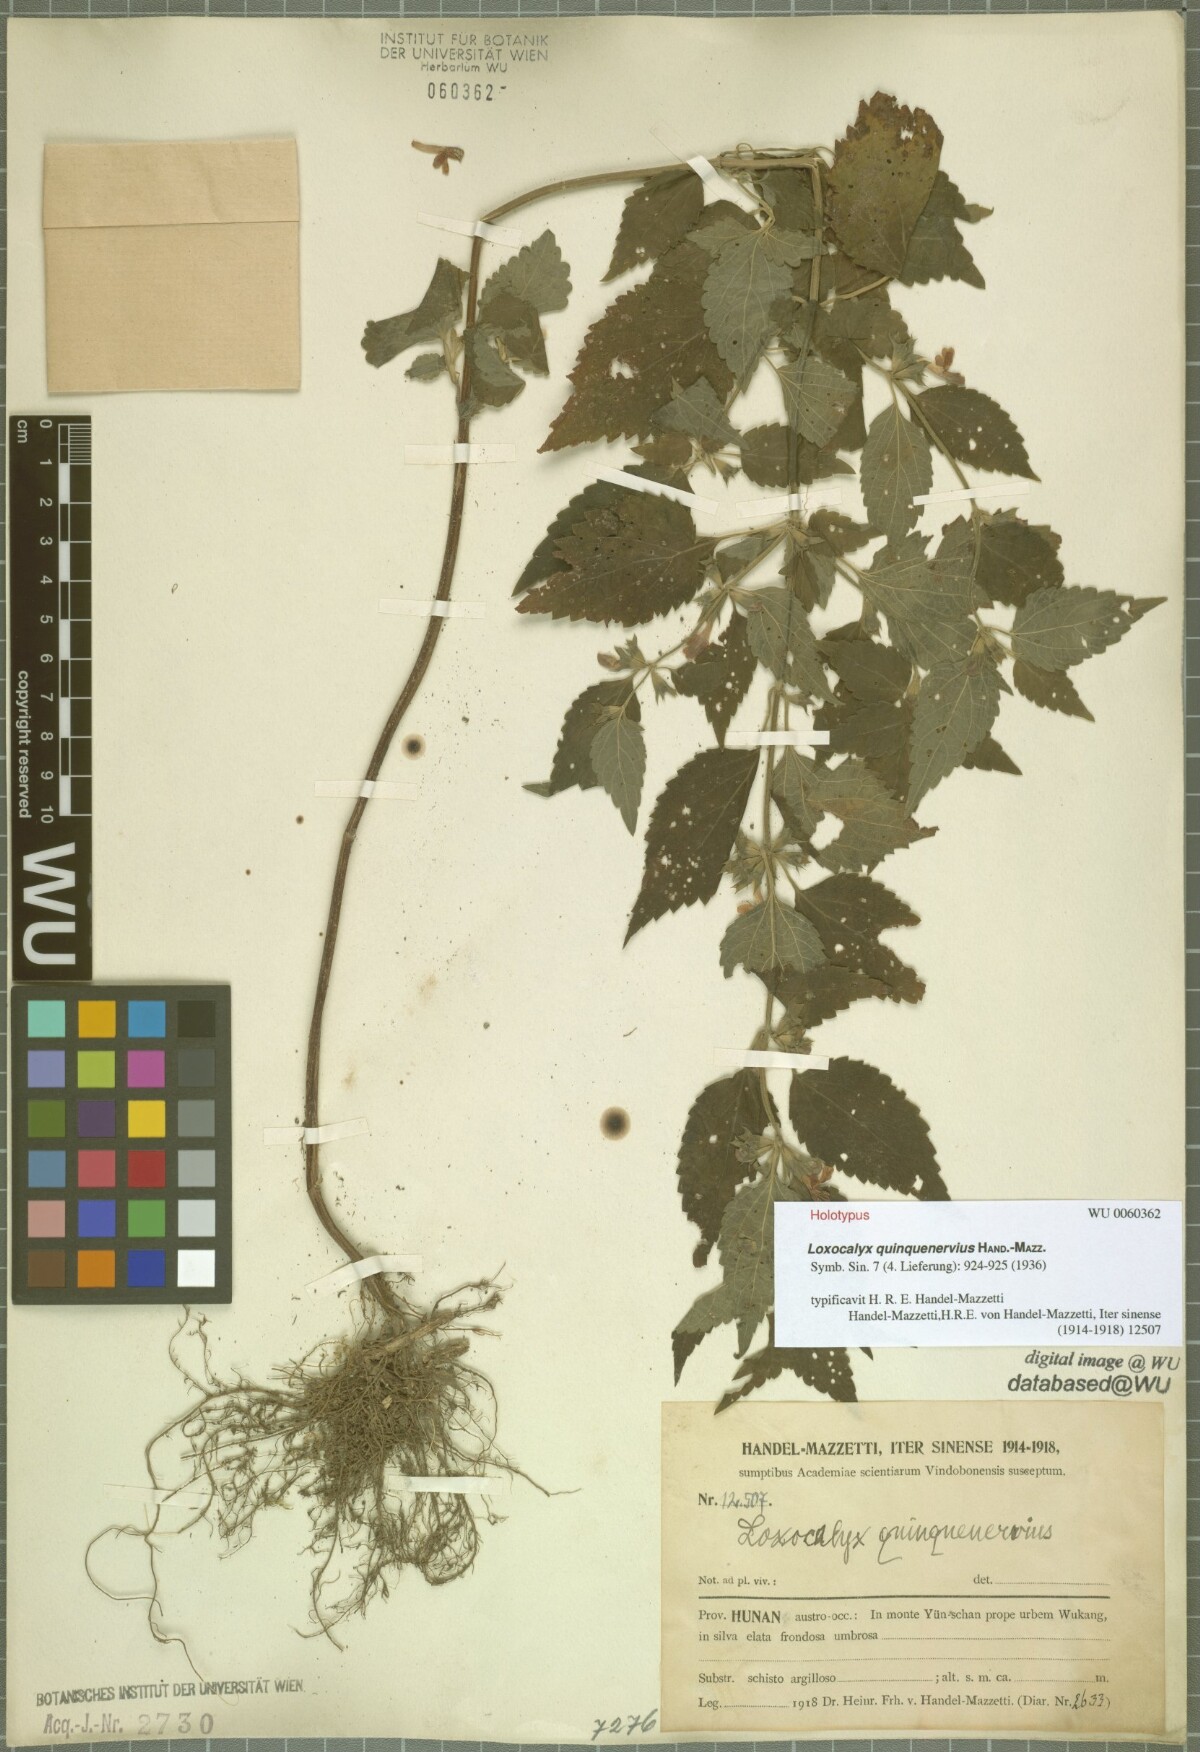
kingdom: Plantae
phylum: Tracheophyta
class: Magnoliopsida
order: Lamiales
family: Lamiaceae
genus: Loxocalyx
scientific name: Loxocalyx quinquenervius
